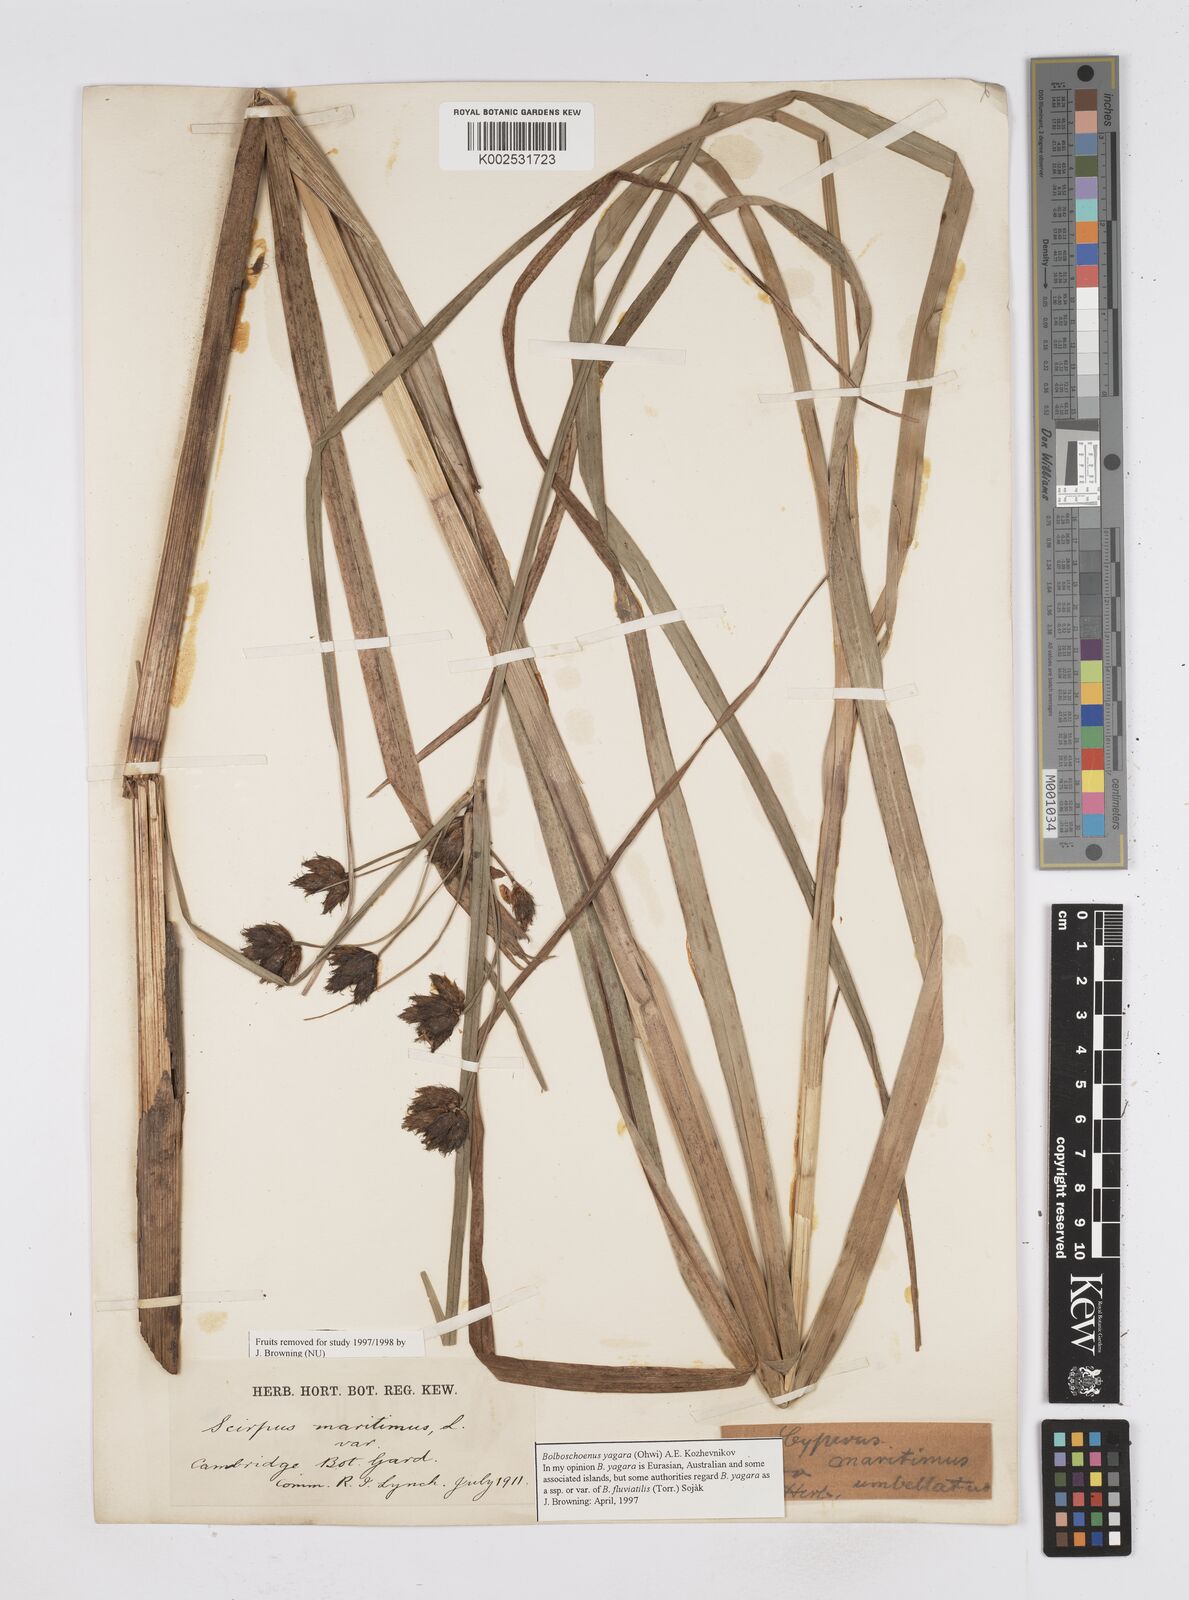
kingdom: Plantae
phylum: Tracheophyta
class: Liliopsida
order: Poales
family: Cyperaceae
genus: Bolboschoenus
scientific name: Bolboschoenus yagara
